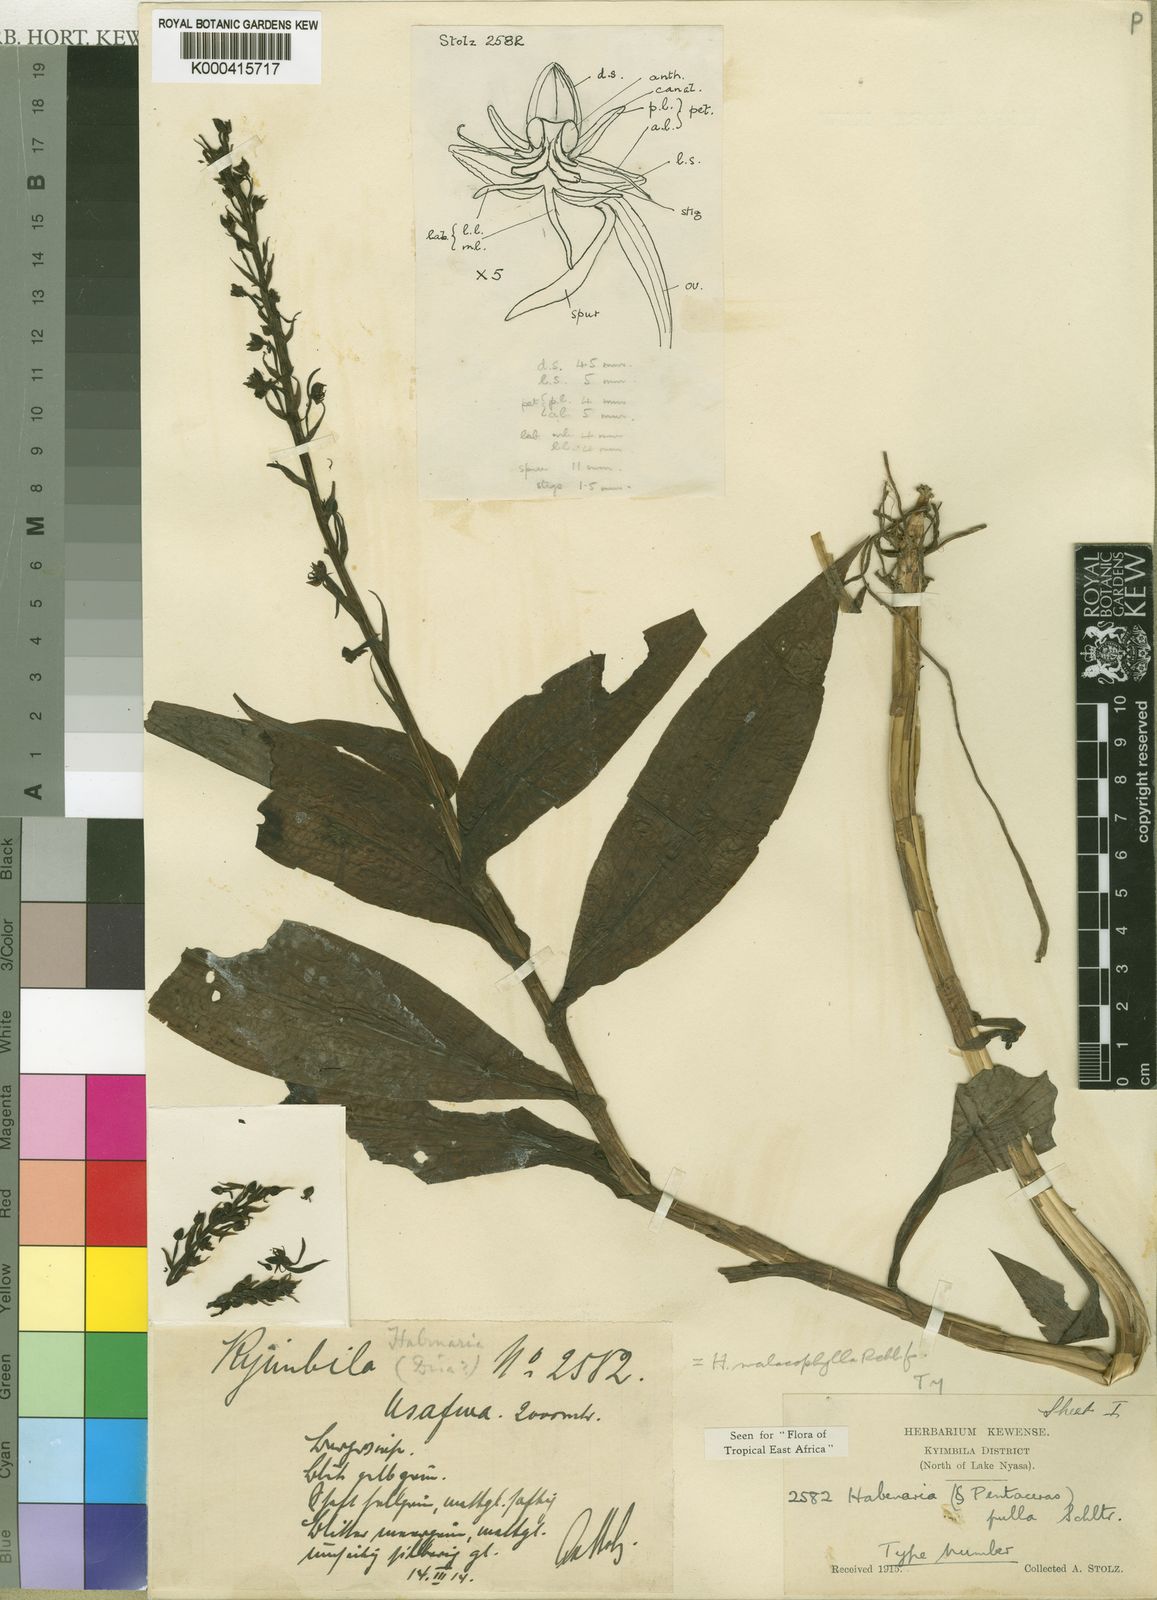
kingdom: Plantae
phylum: Tracheophyta
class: Liliopsida
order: Asparagales
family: Orchidaceae
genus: Habenaria
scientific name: Habenaria malacophylla
